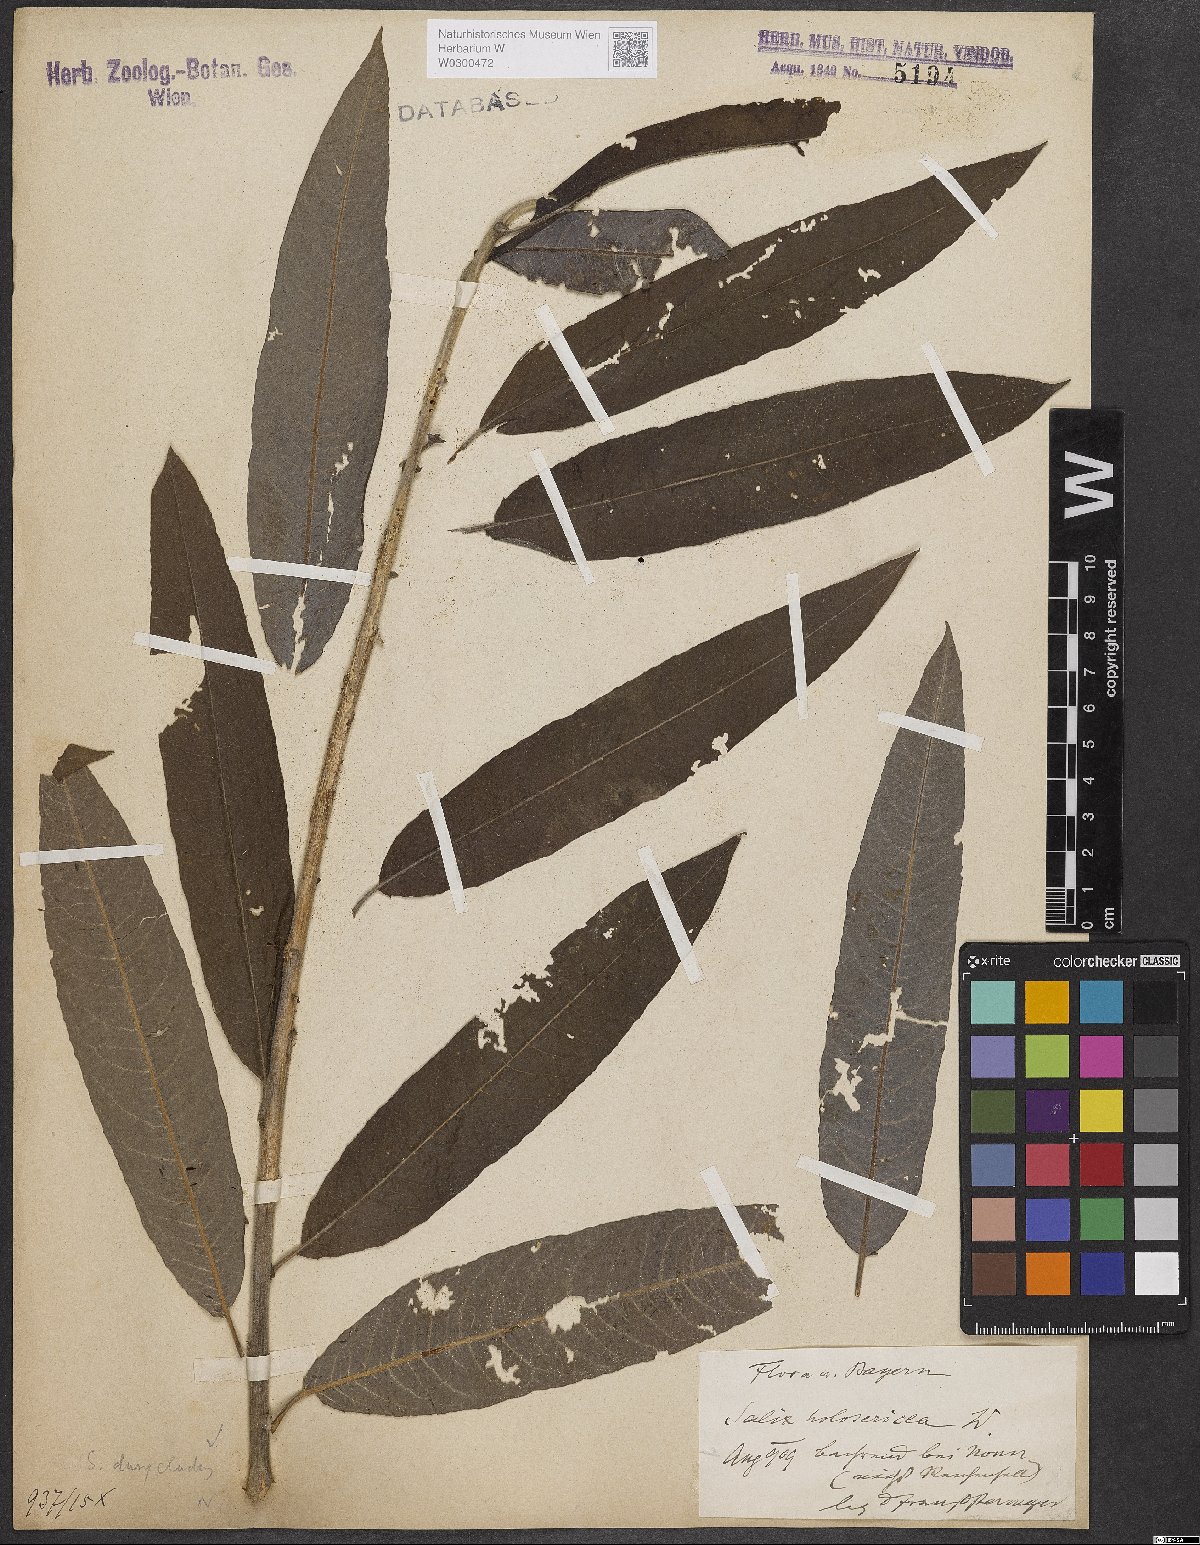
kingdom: Plantae
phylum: Tracheophyta
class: Magnoliopsida
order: Malpighiales
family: Salicaceae
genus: Salix
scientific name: Salix gmelinii
